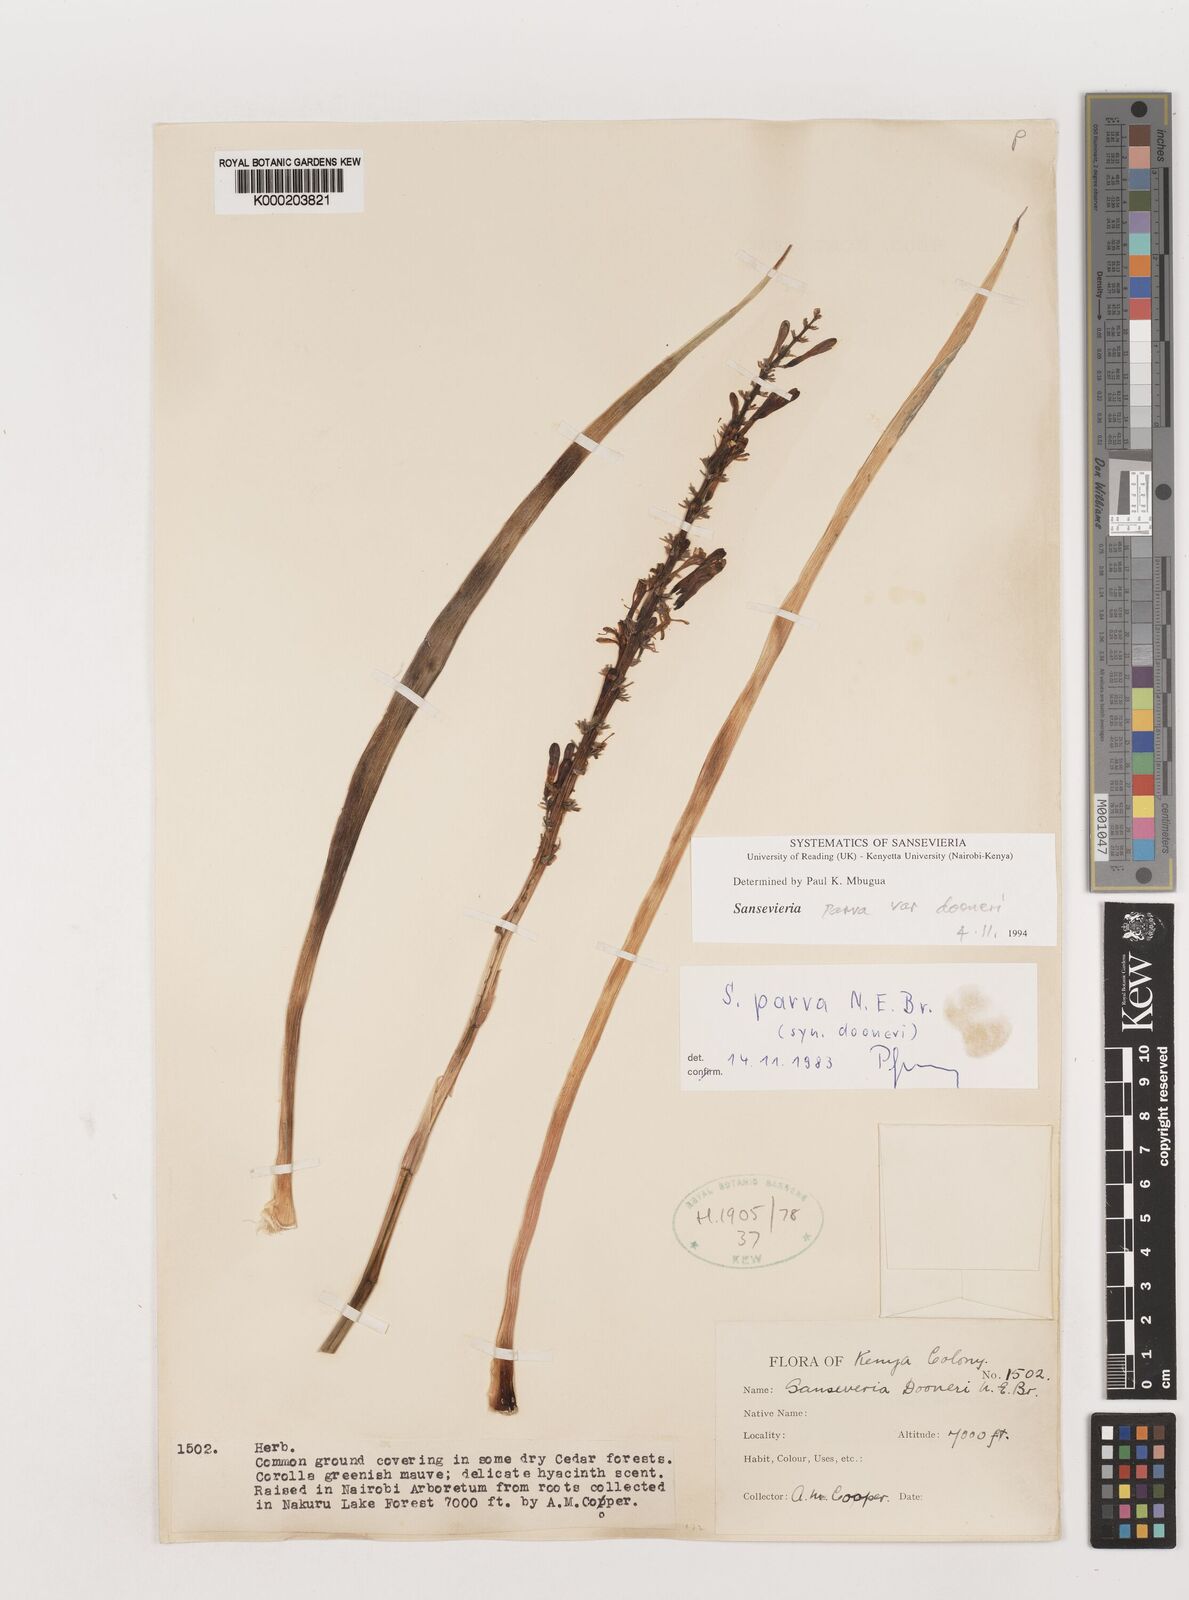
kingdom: Plantae
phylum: Tracheophyta
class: Liliopsida
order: Asparagales
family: Asparagaceae
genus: Dracaena
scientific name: Dracaena parva
